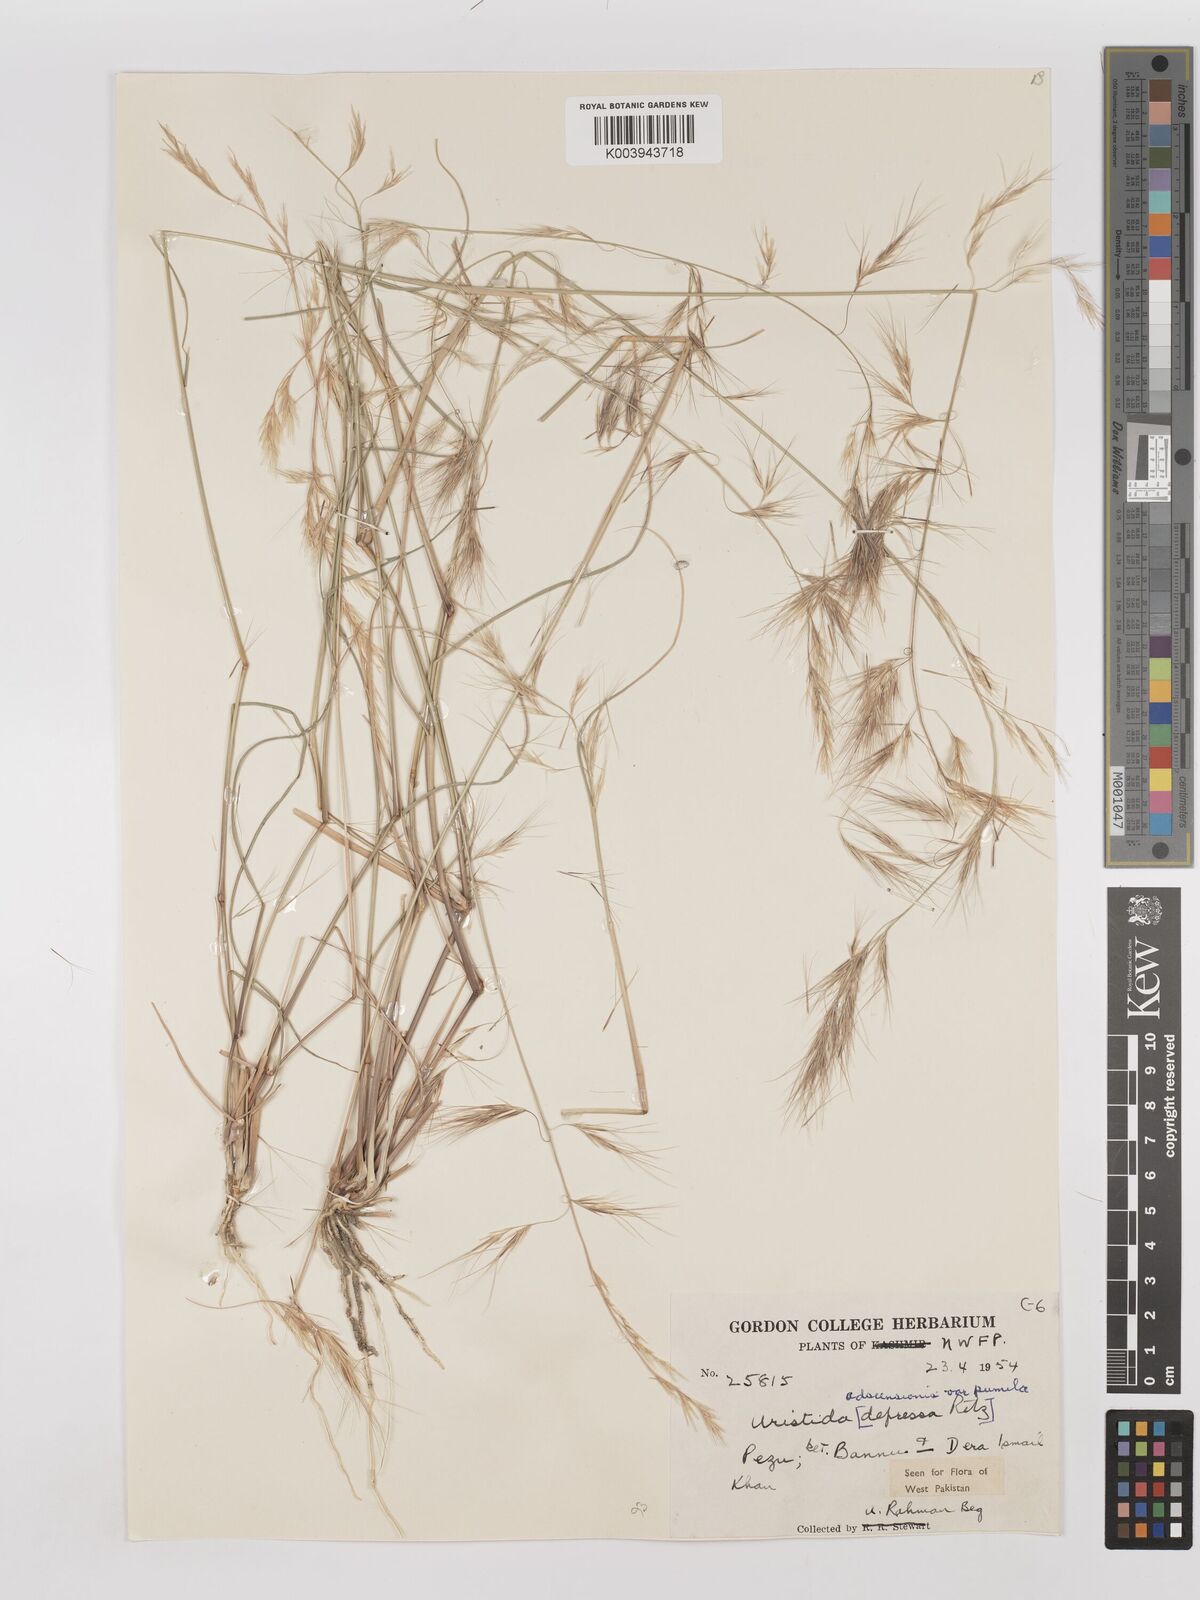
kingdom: Plantae
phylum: Tracheophyta
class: Liliopsida
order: Poales
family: Poaceae
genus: Aristida
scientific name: Aristida adscensionis
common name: Sixweeks threeawn
